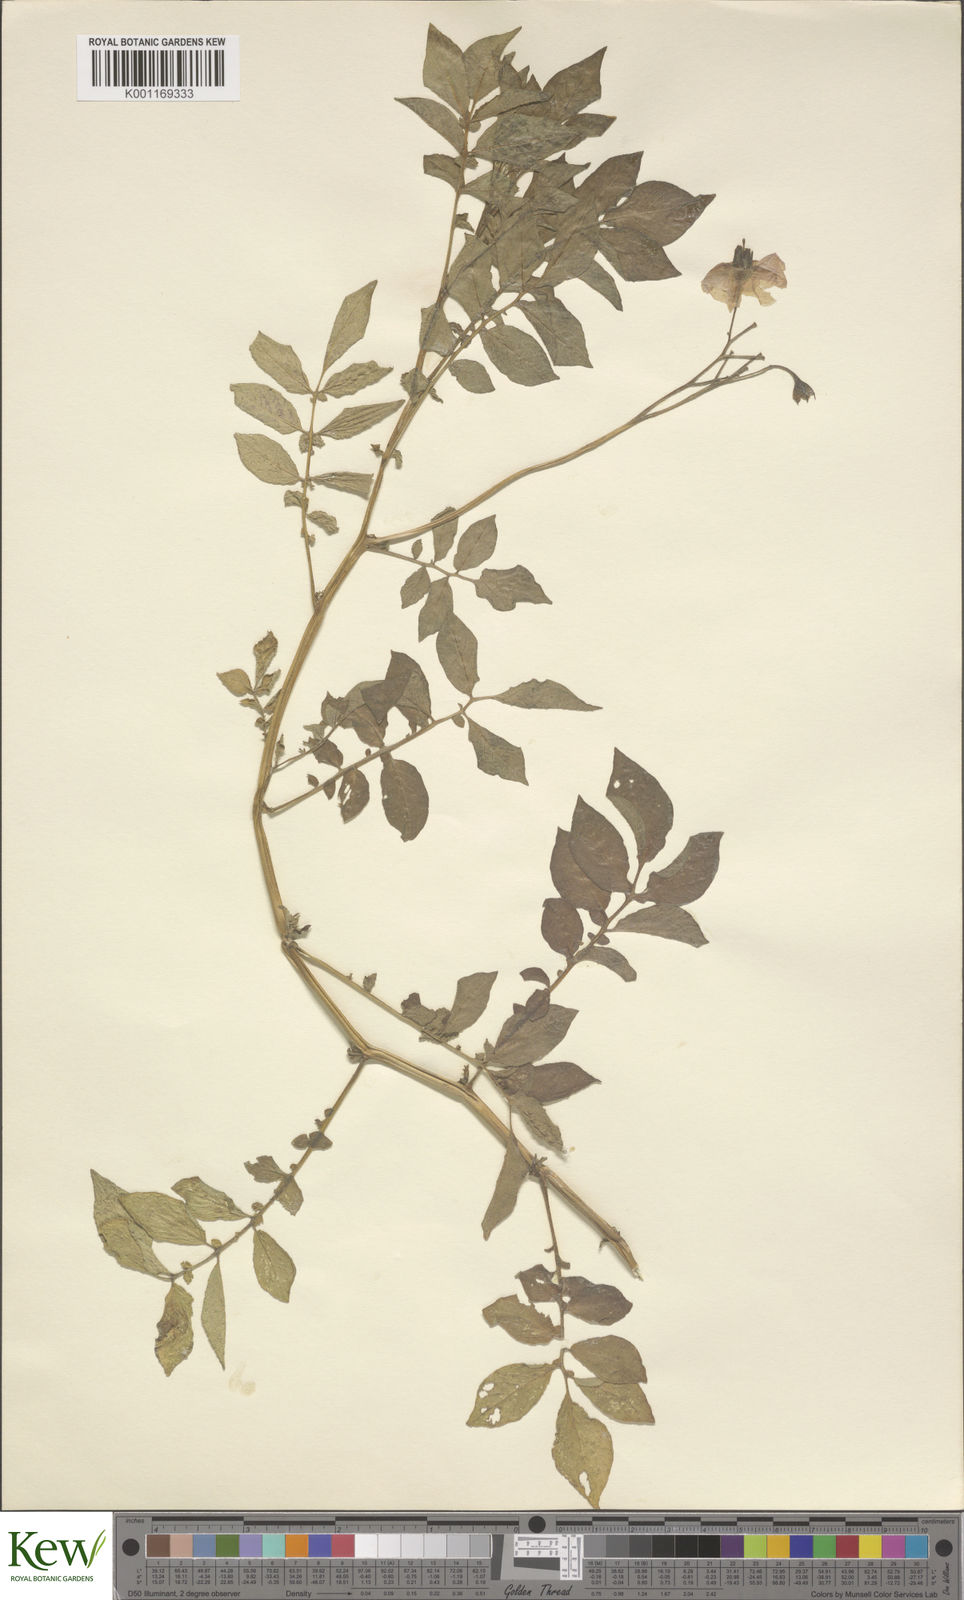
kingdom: Plantae
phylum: Tracheophyta
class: Magnoliopsida
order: Solanales
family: Solanaceae
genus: Solanum
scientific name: Solanum chaucha
